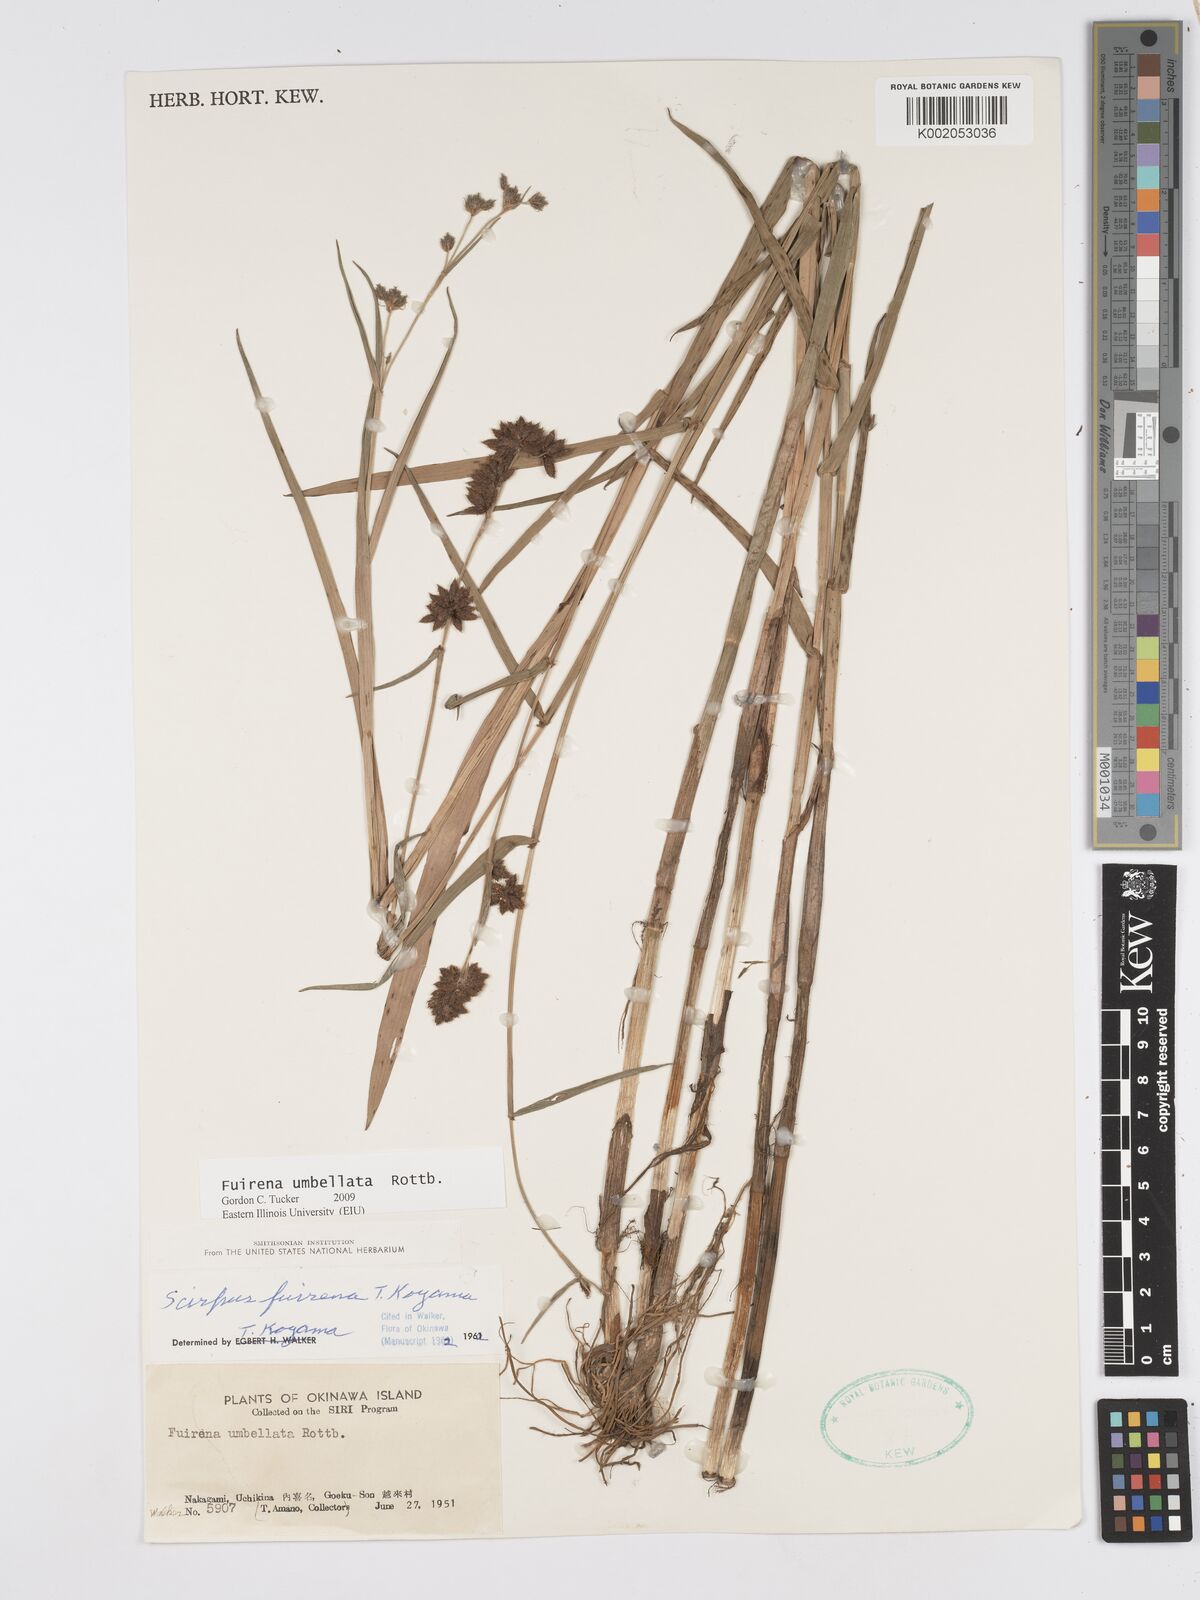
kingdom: Plantae
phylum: Tracheophyta
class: Liliopsida
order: Poales
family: Cyperaceae
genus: Fuirena
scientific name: Fuirena umbellata
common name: Yefen
